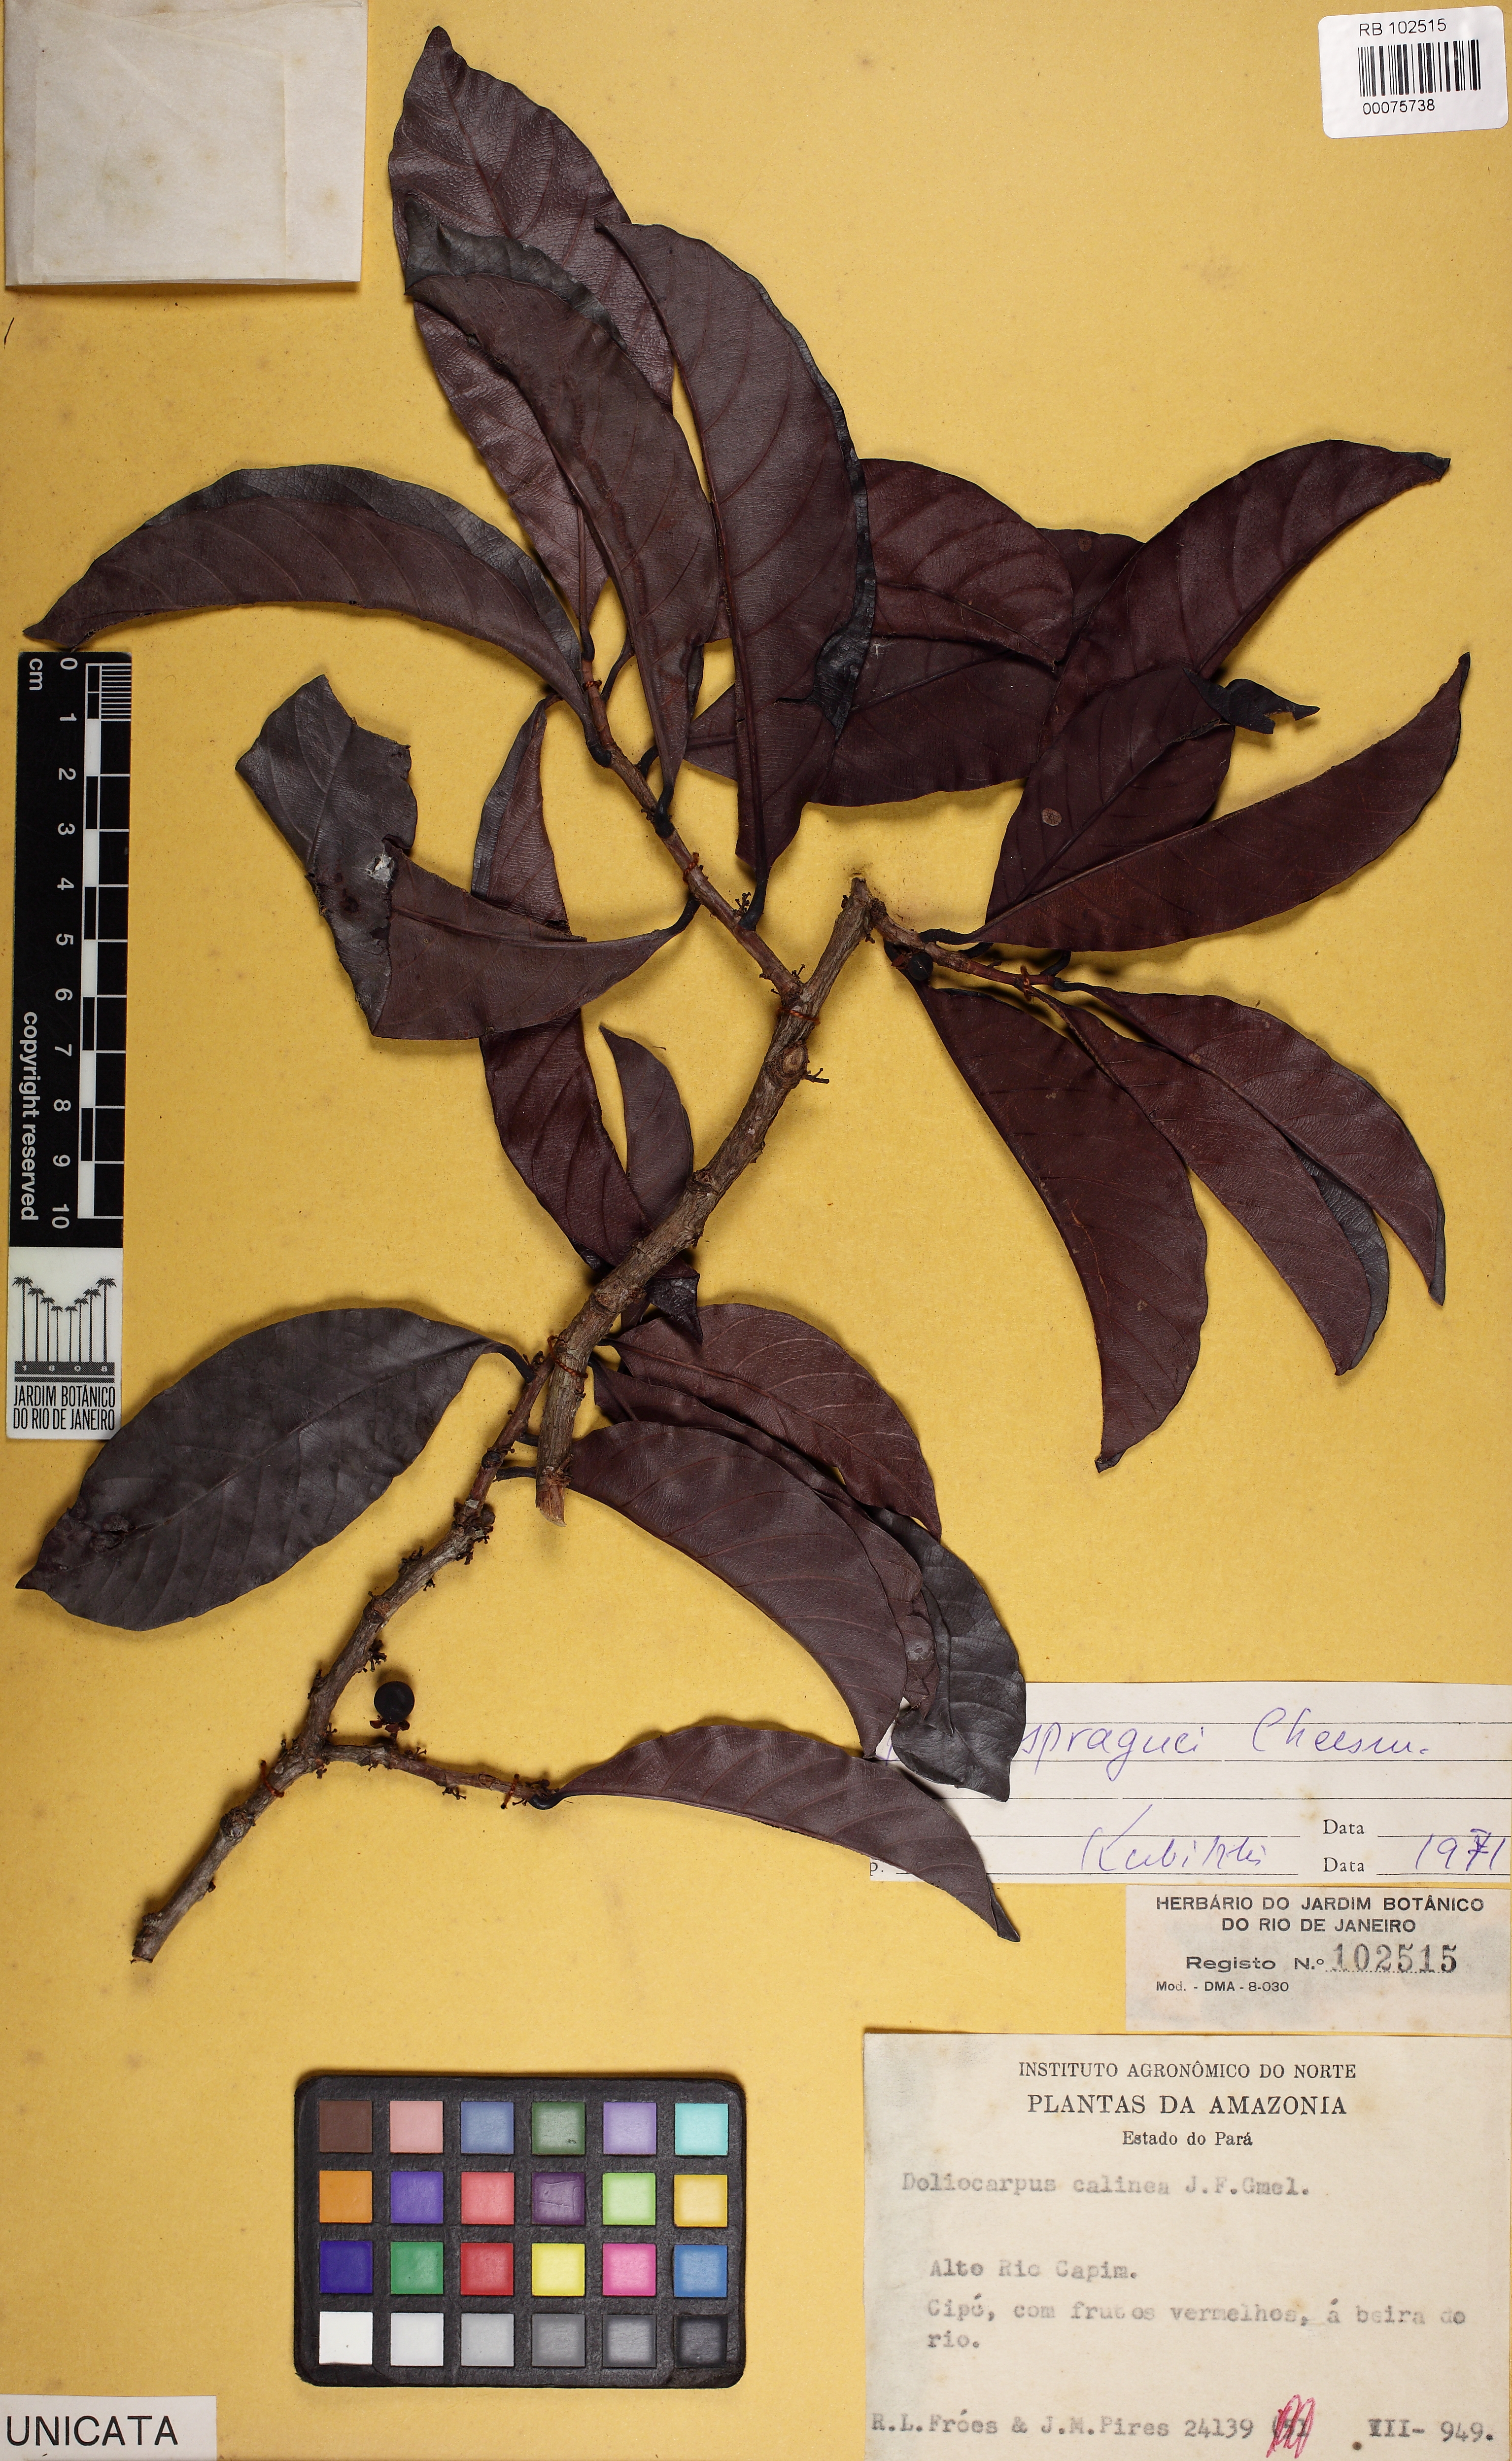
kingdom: Plantae
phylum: Tracheophyta
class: Magnoliopsida
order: Dilleniales
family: Dilleniaceae
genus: Doliocarpus
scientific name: Doliocarpus spraguei
